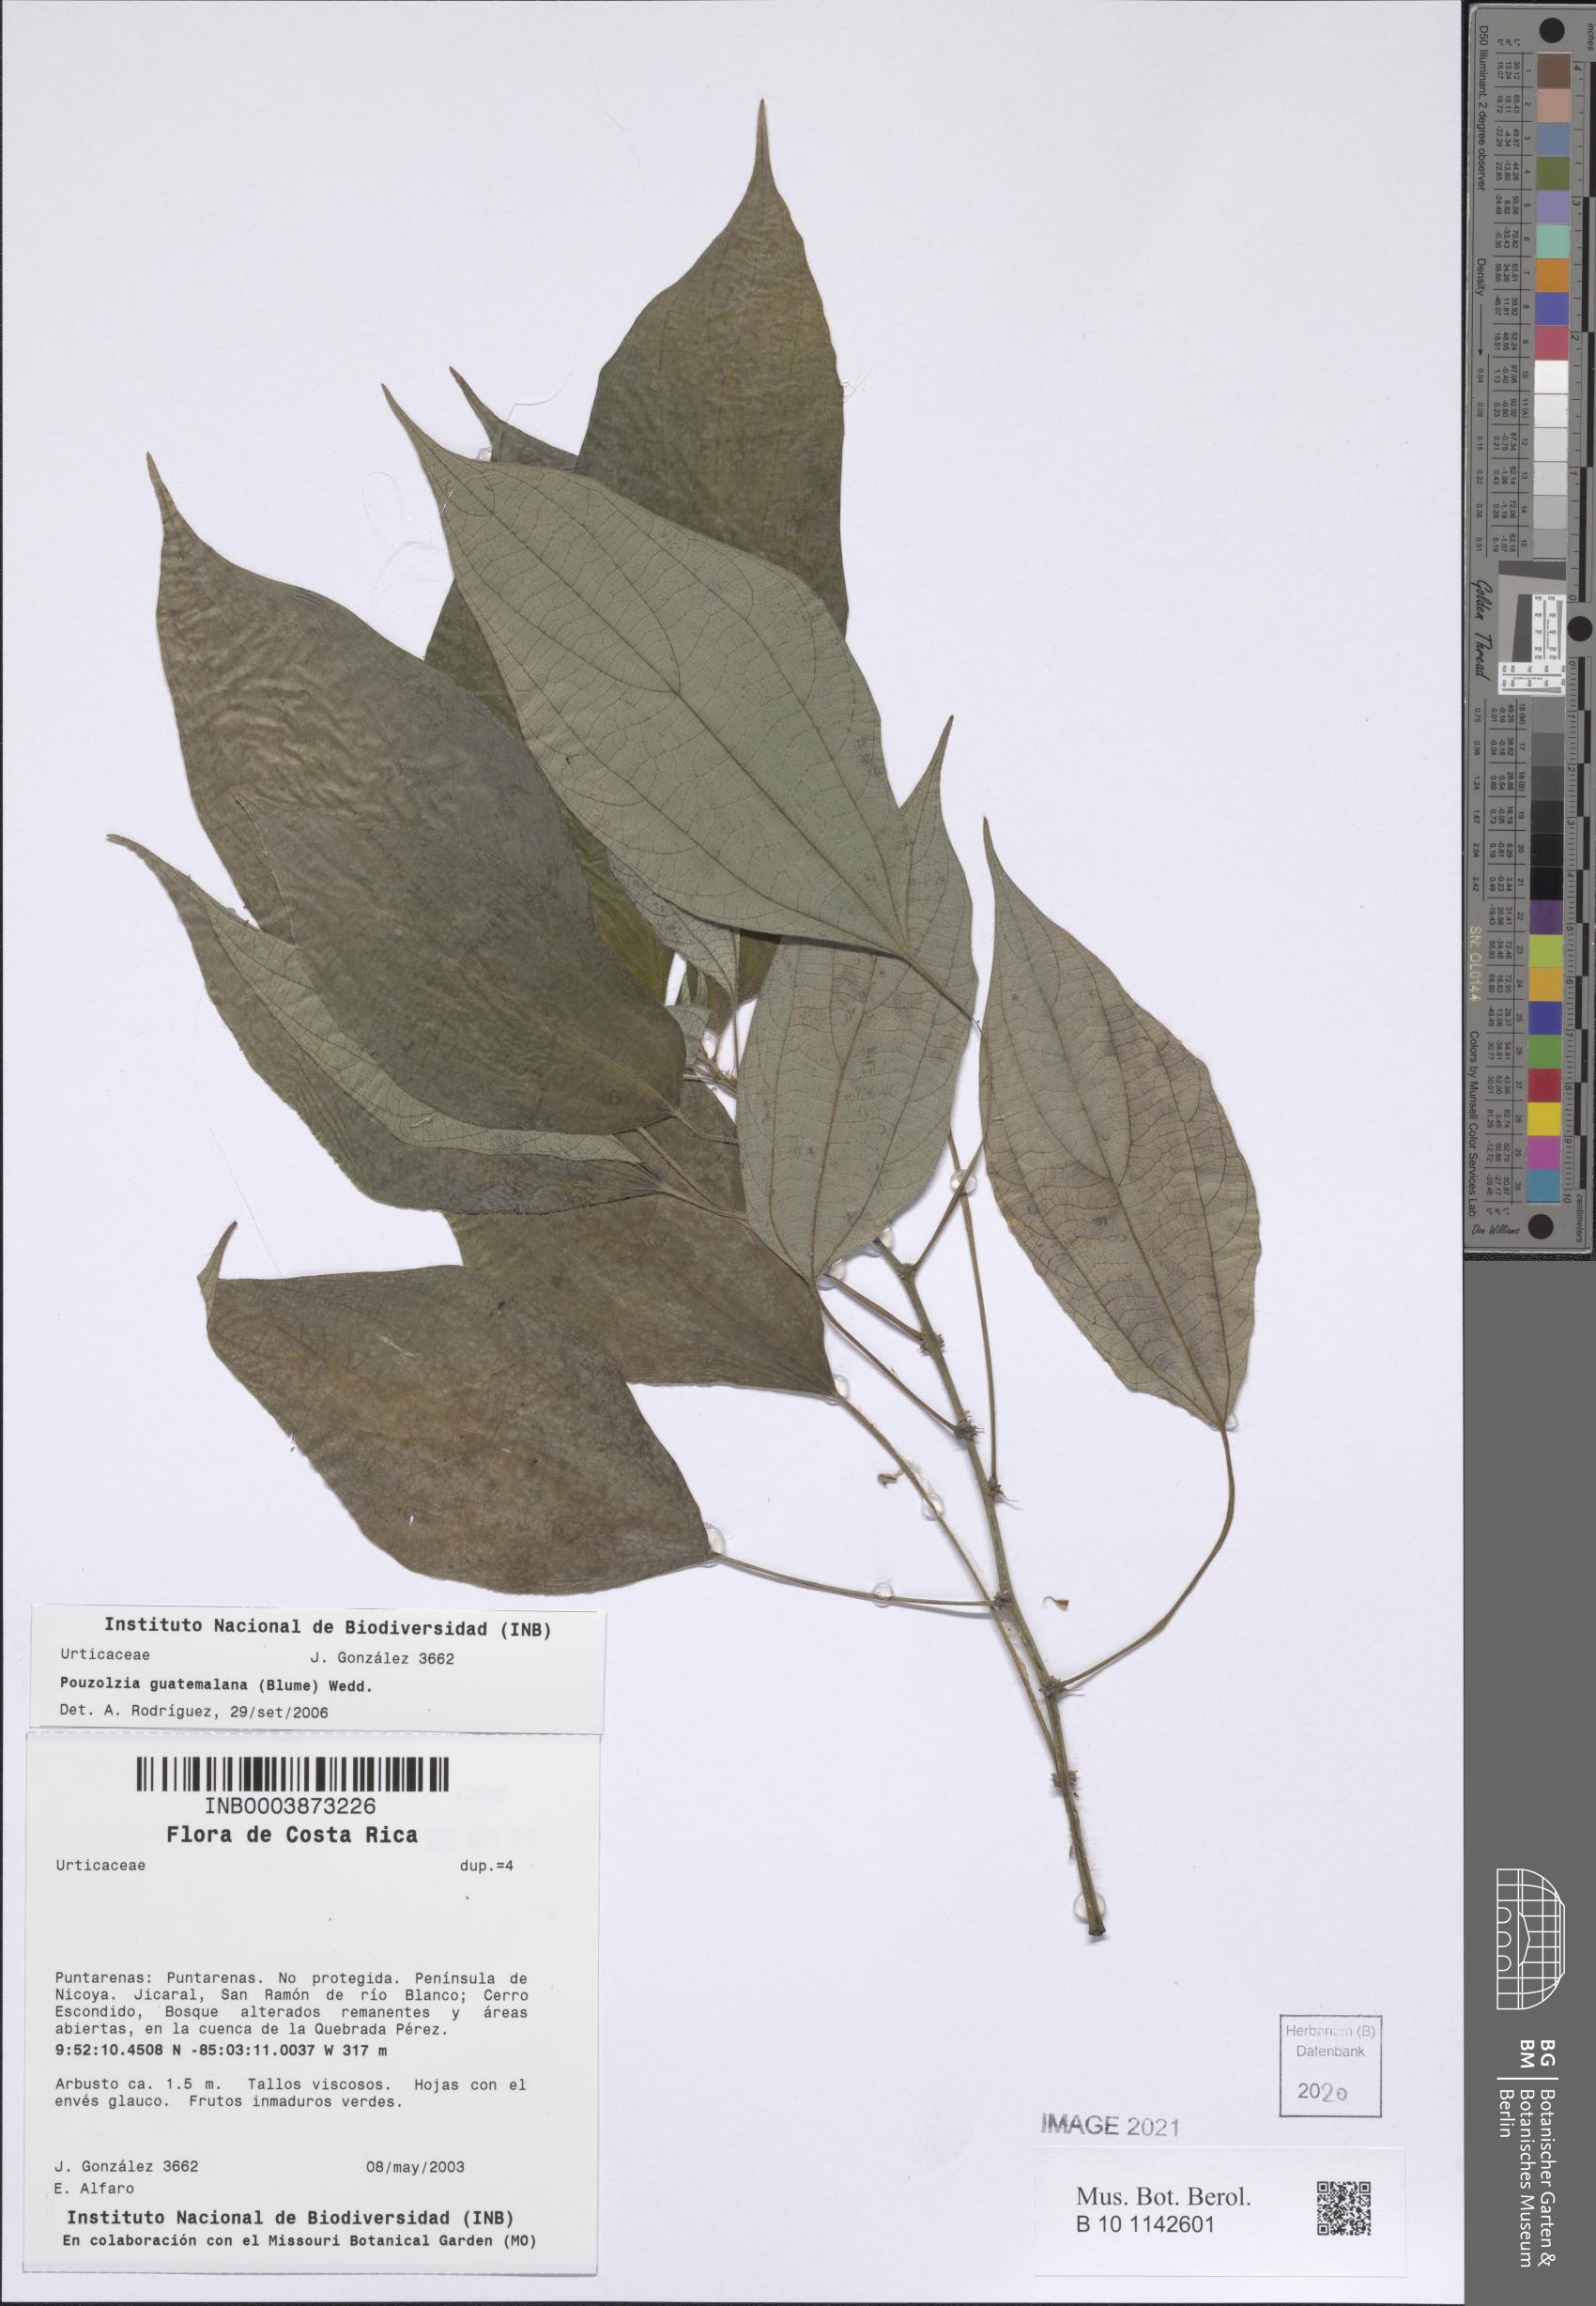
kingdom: Plantae
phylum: Tracheophyta
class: Magnoliopsida
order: Rosales
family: Urticaceae
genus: Pouzolzia
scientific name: Pouzolzia guatemalana
